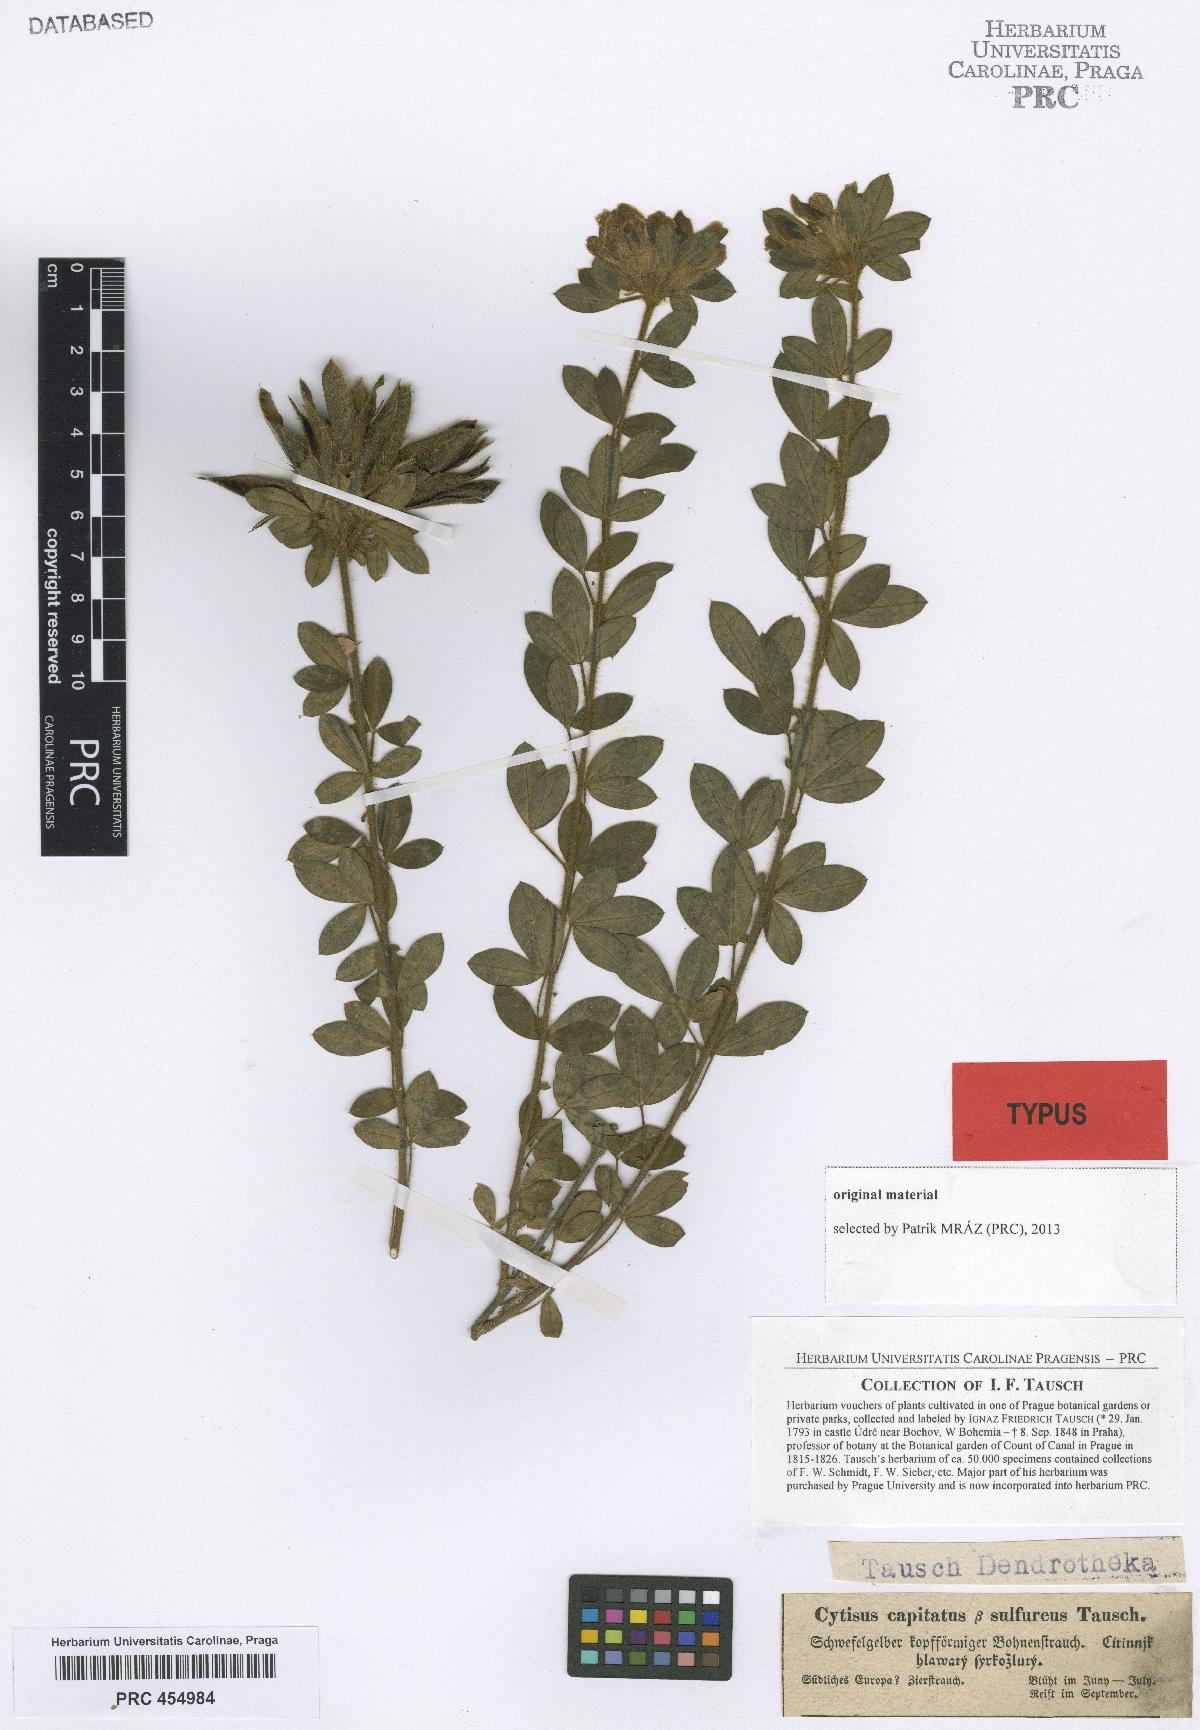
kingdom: Plantae
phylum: Tracheophyta
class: Magnoliopsida
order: Fabales
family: Fabaceae
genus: Chamaecytisus
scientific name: Chamaecytisus hirsutus
